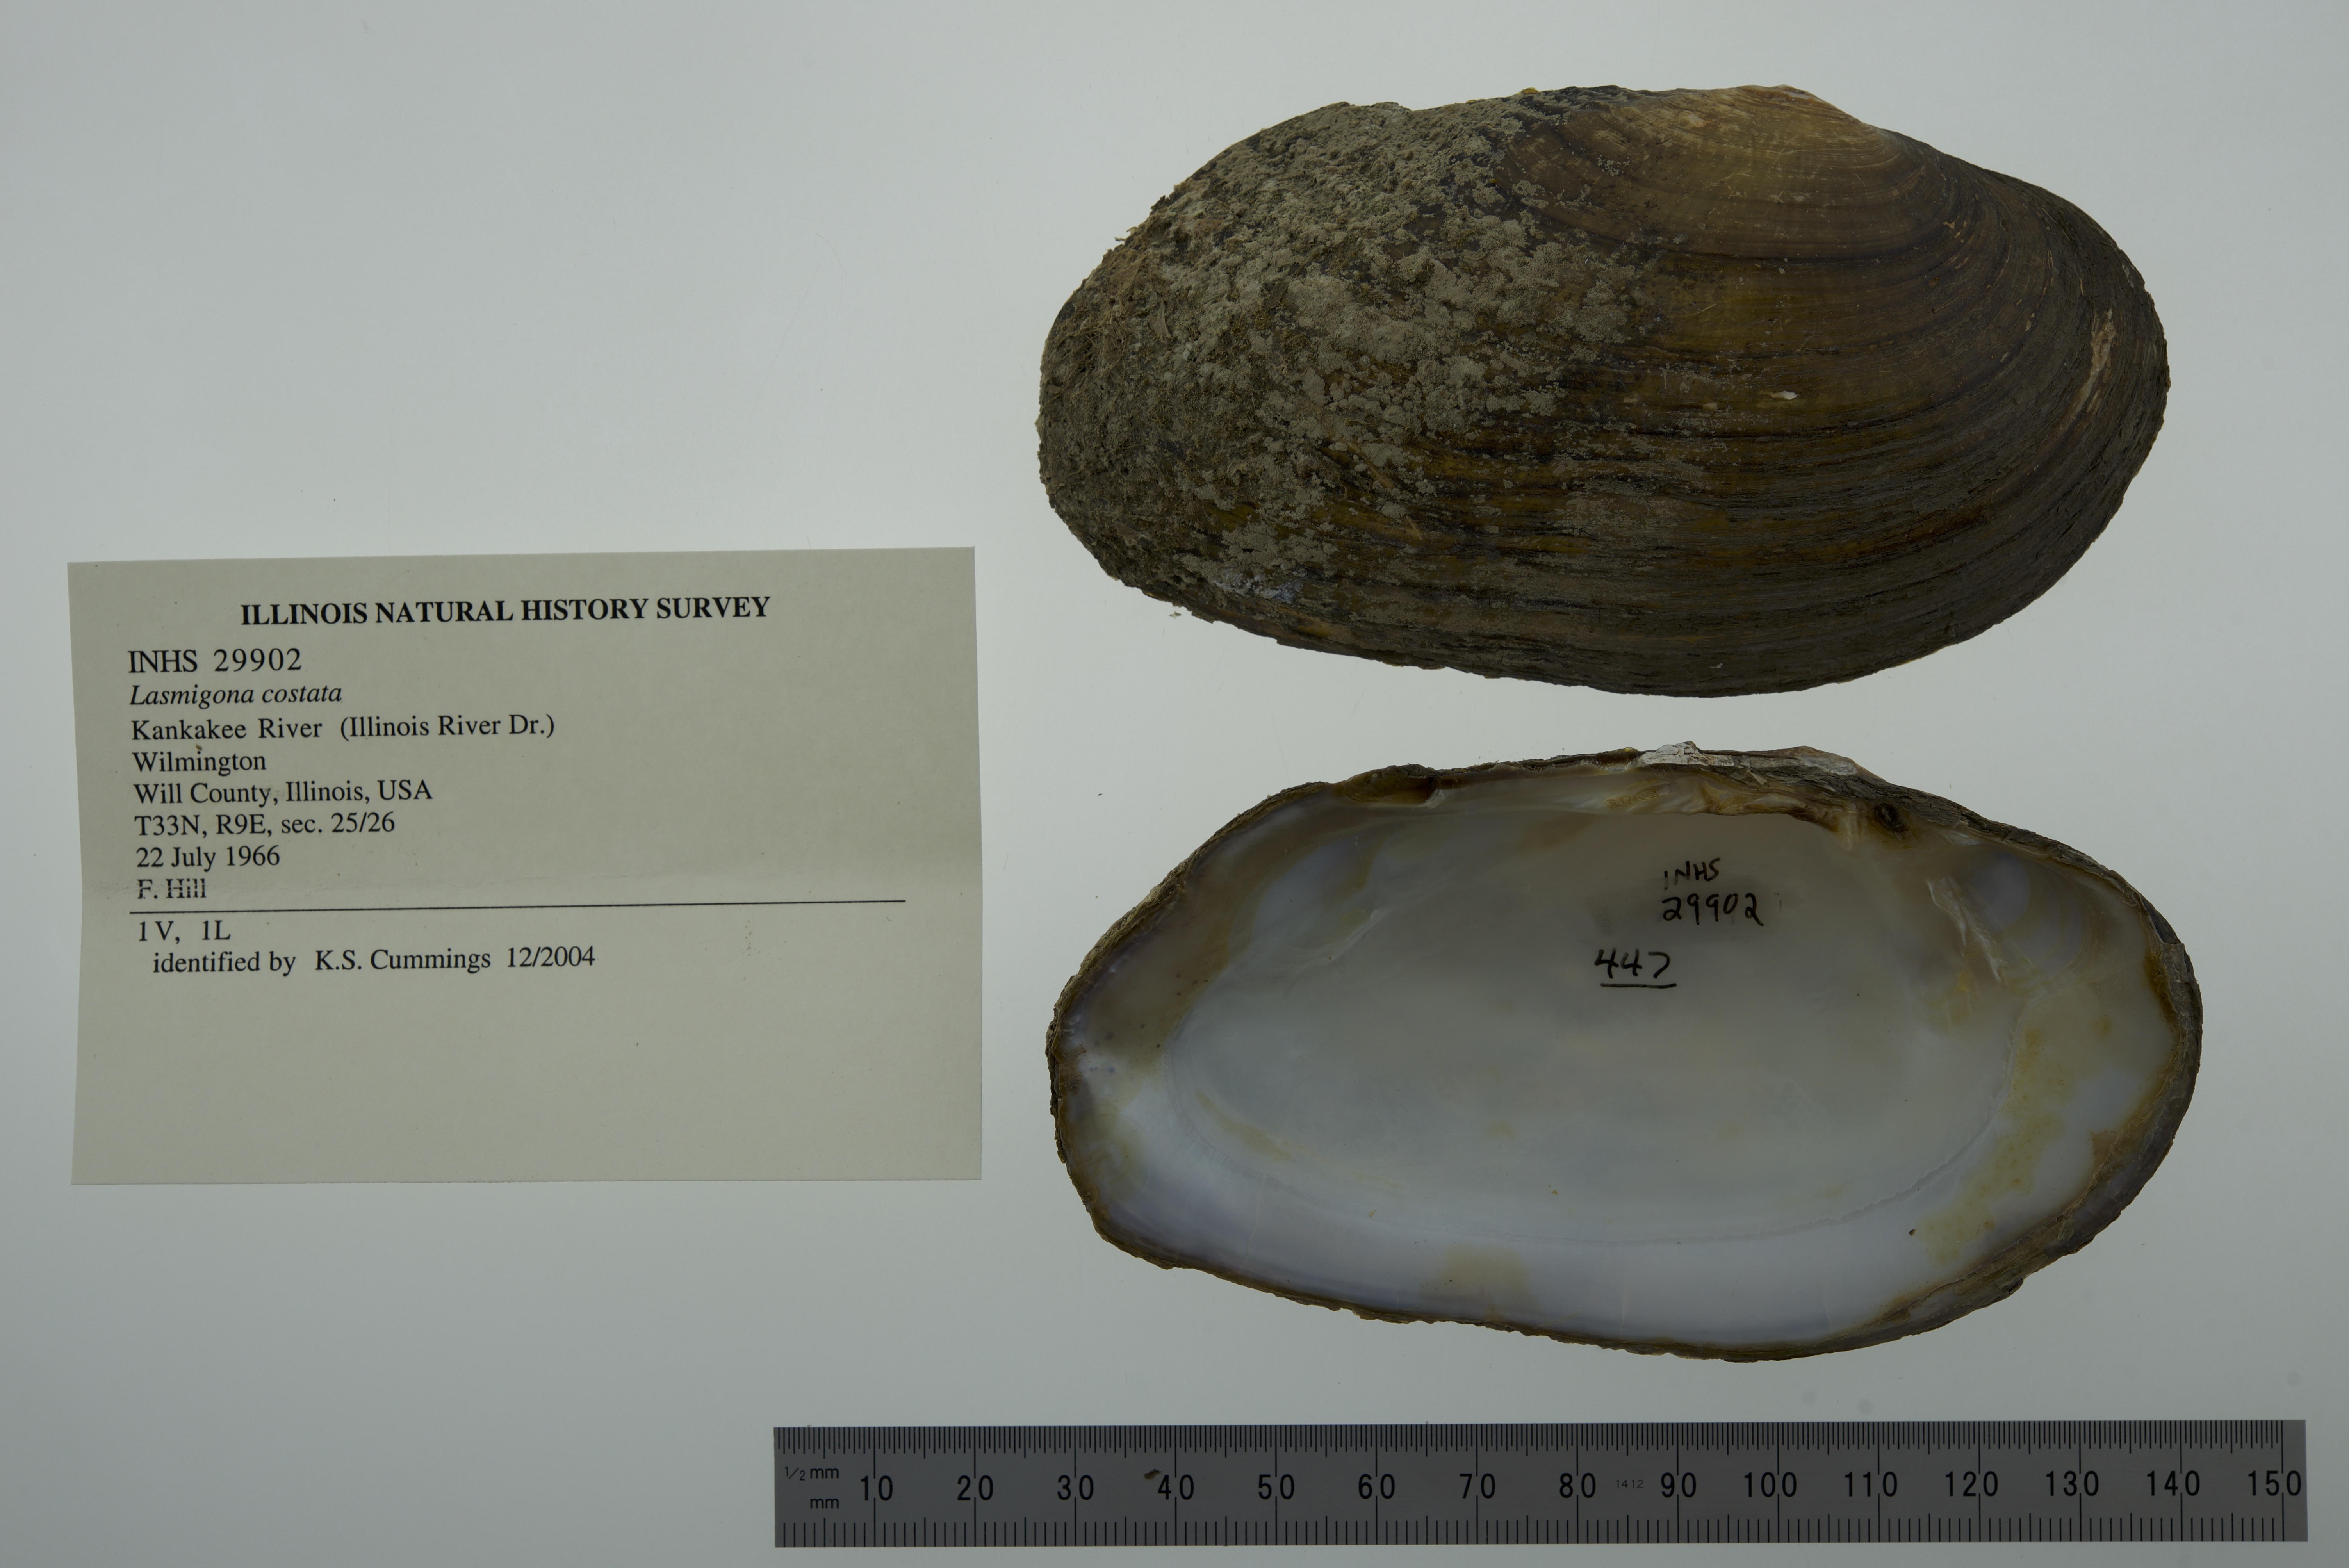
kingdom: Animalia
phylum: Mollusca
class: Bivalvia
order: Unionida
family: Unionidae
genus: Lasmigona
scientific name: Lasmigona costata
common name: Flutedshell
